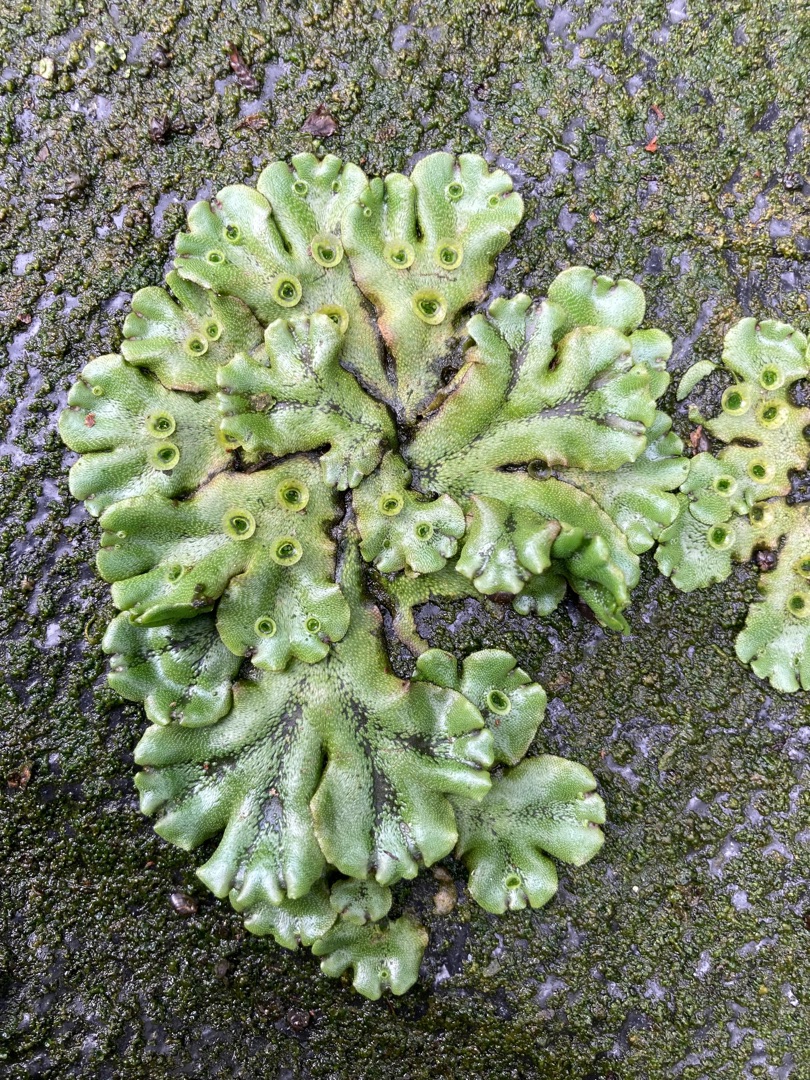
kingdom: Plantae
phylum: Marchantiophyta
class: Marchantiopsida
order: Marchantiales
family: Marchantiaceae
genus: Marchantia
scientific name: Marchantia polymorpha
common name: Almindelig lungemos (underart)
